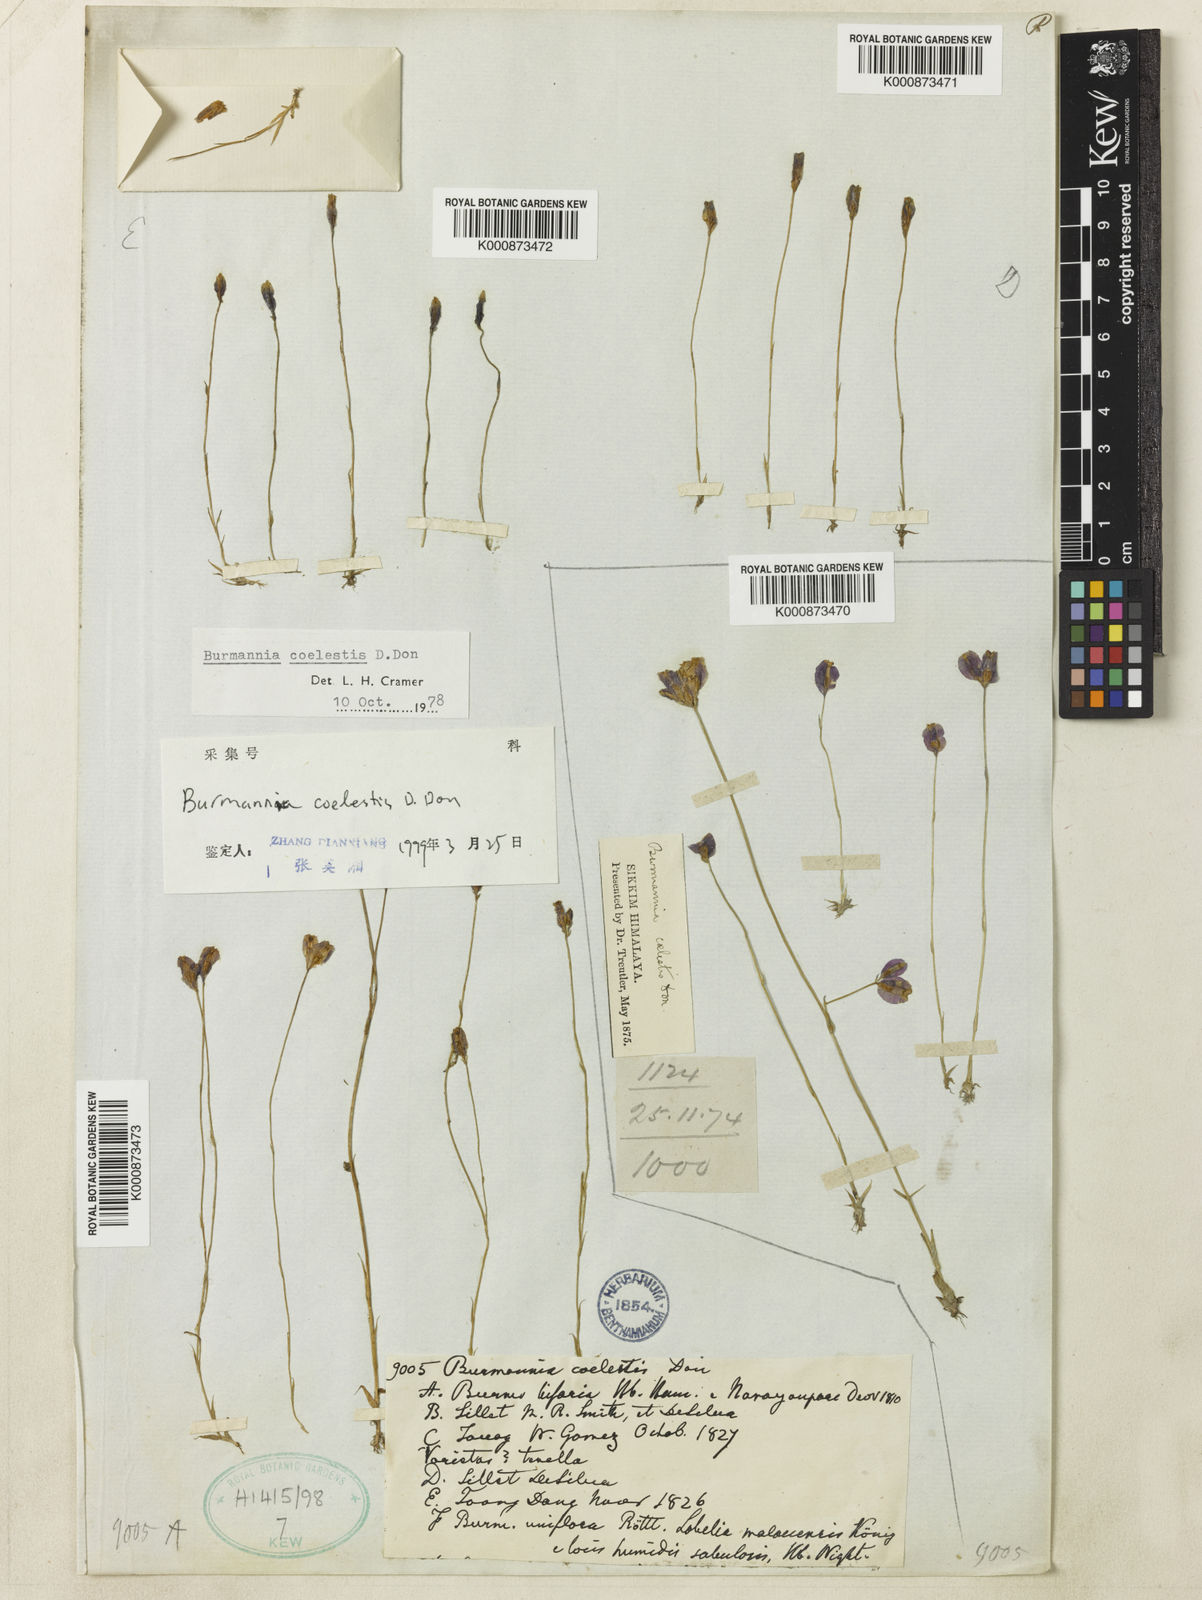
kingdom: Plantae
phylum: Tracheophyta
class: Liliopsida
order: Dioscoreales
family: Burmanniaceae
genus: Burmannia
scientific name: Burmannia coelestis
